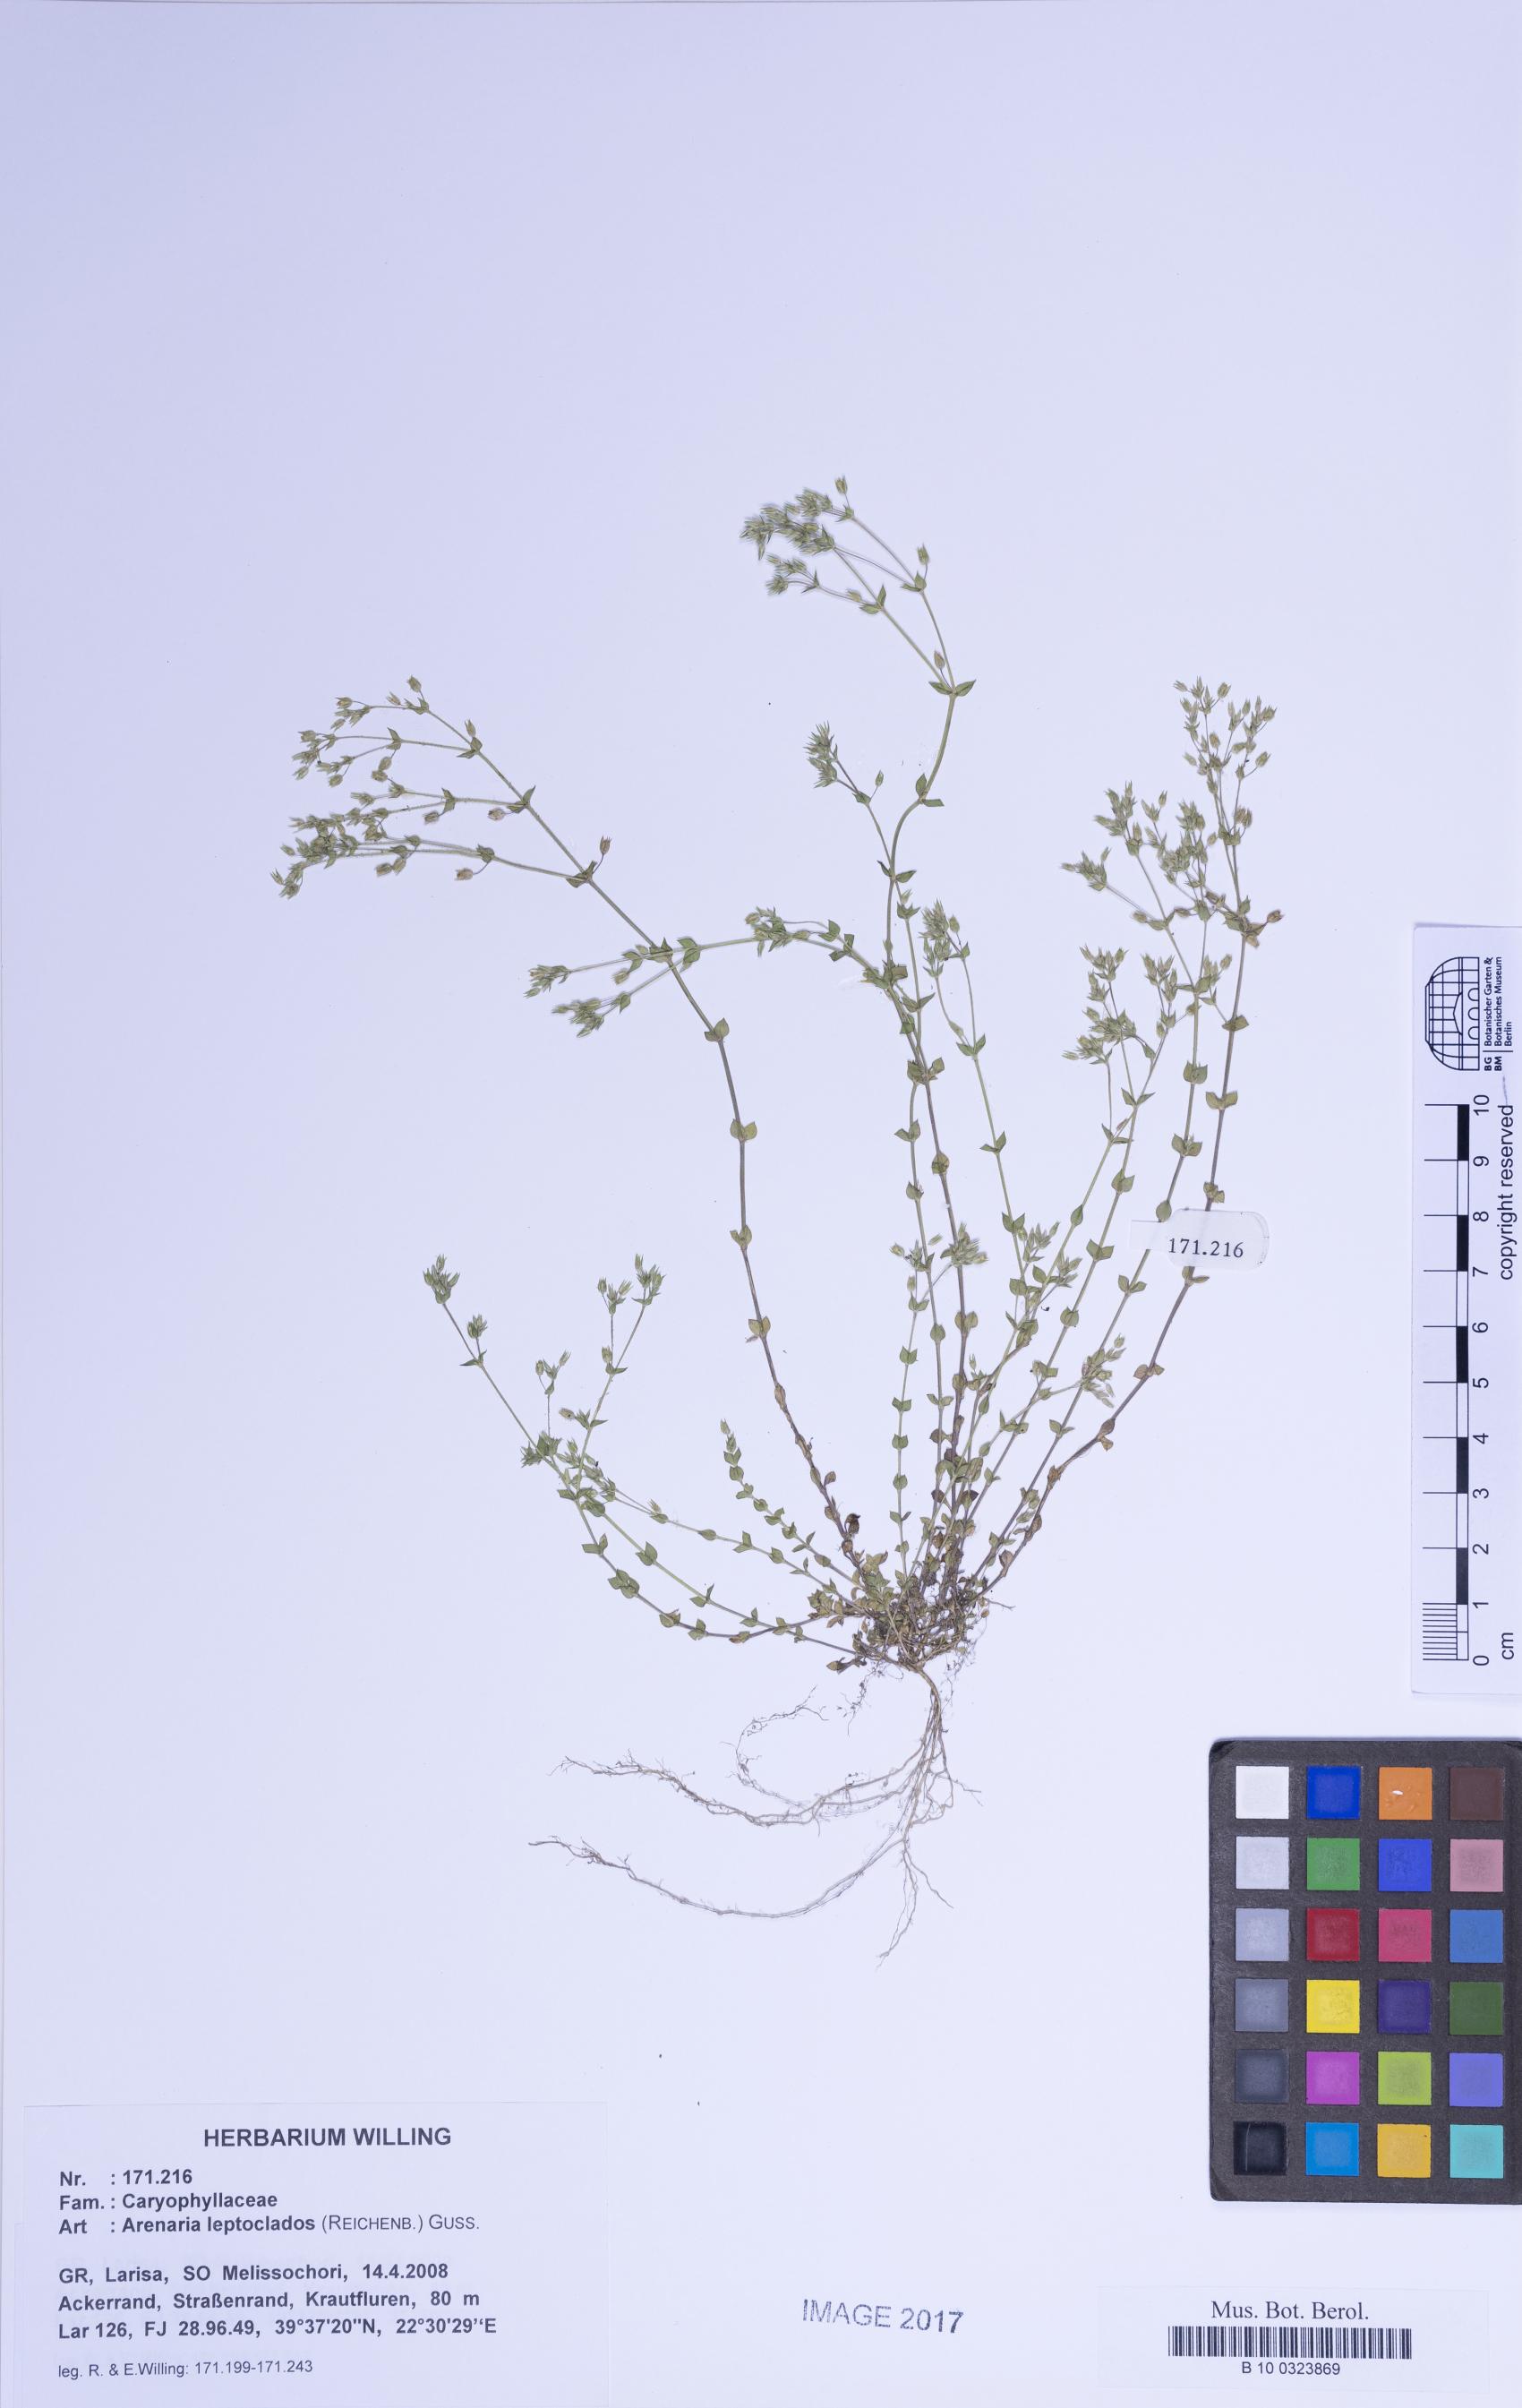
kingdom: Plantae
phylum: Tracheophyta
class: Magnoliopsida
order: Caryophyllales
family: Caryophyllaceae
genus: Arenaria
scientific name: Arenaria leptoclados
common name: Thyme-leaved sandwort
